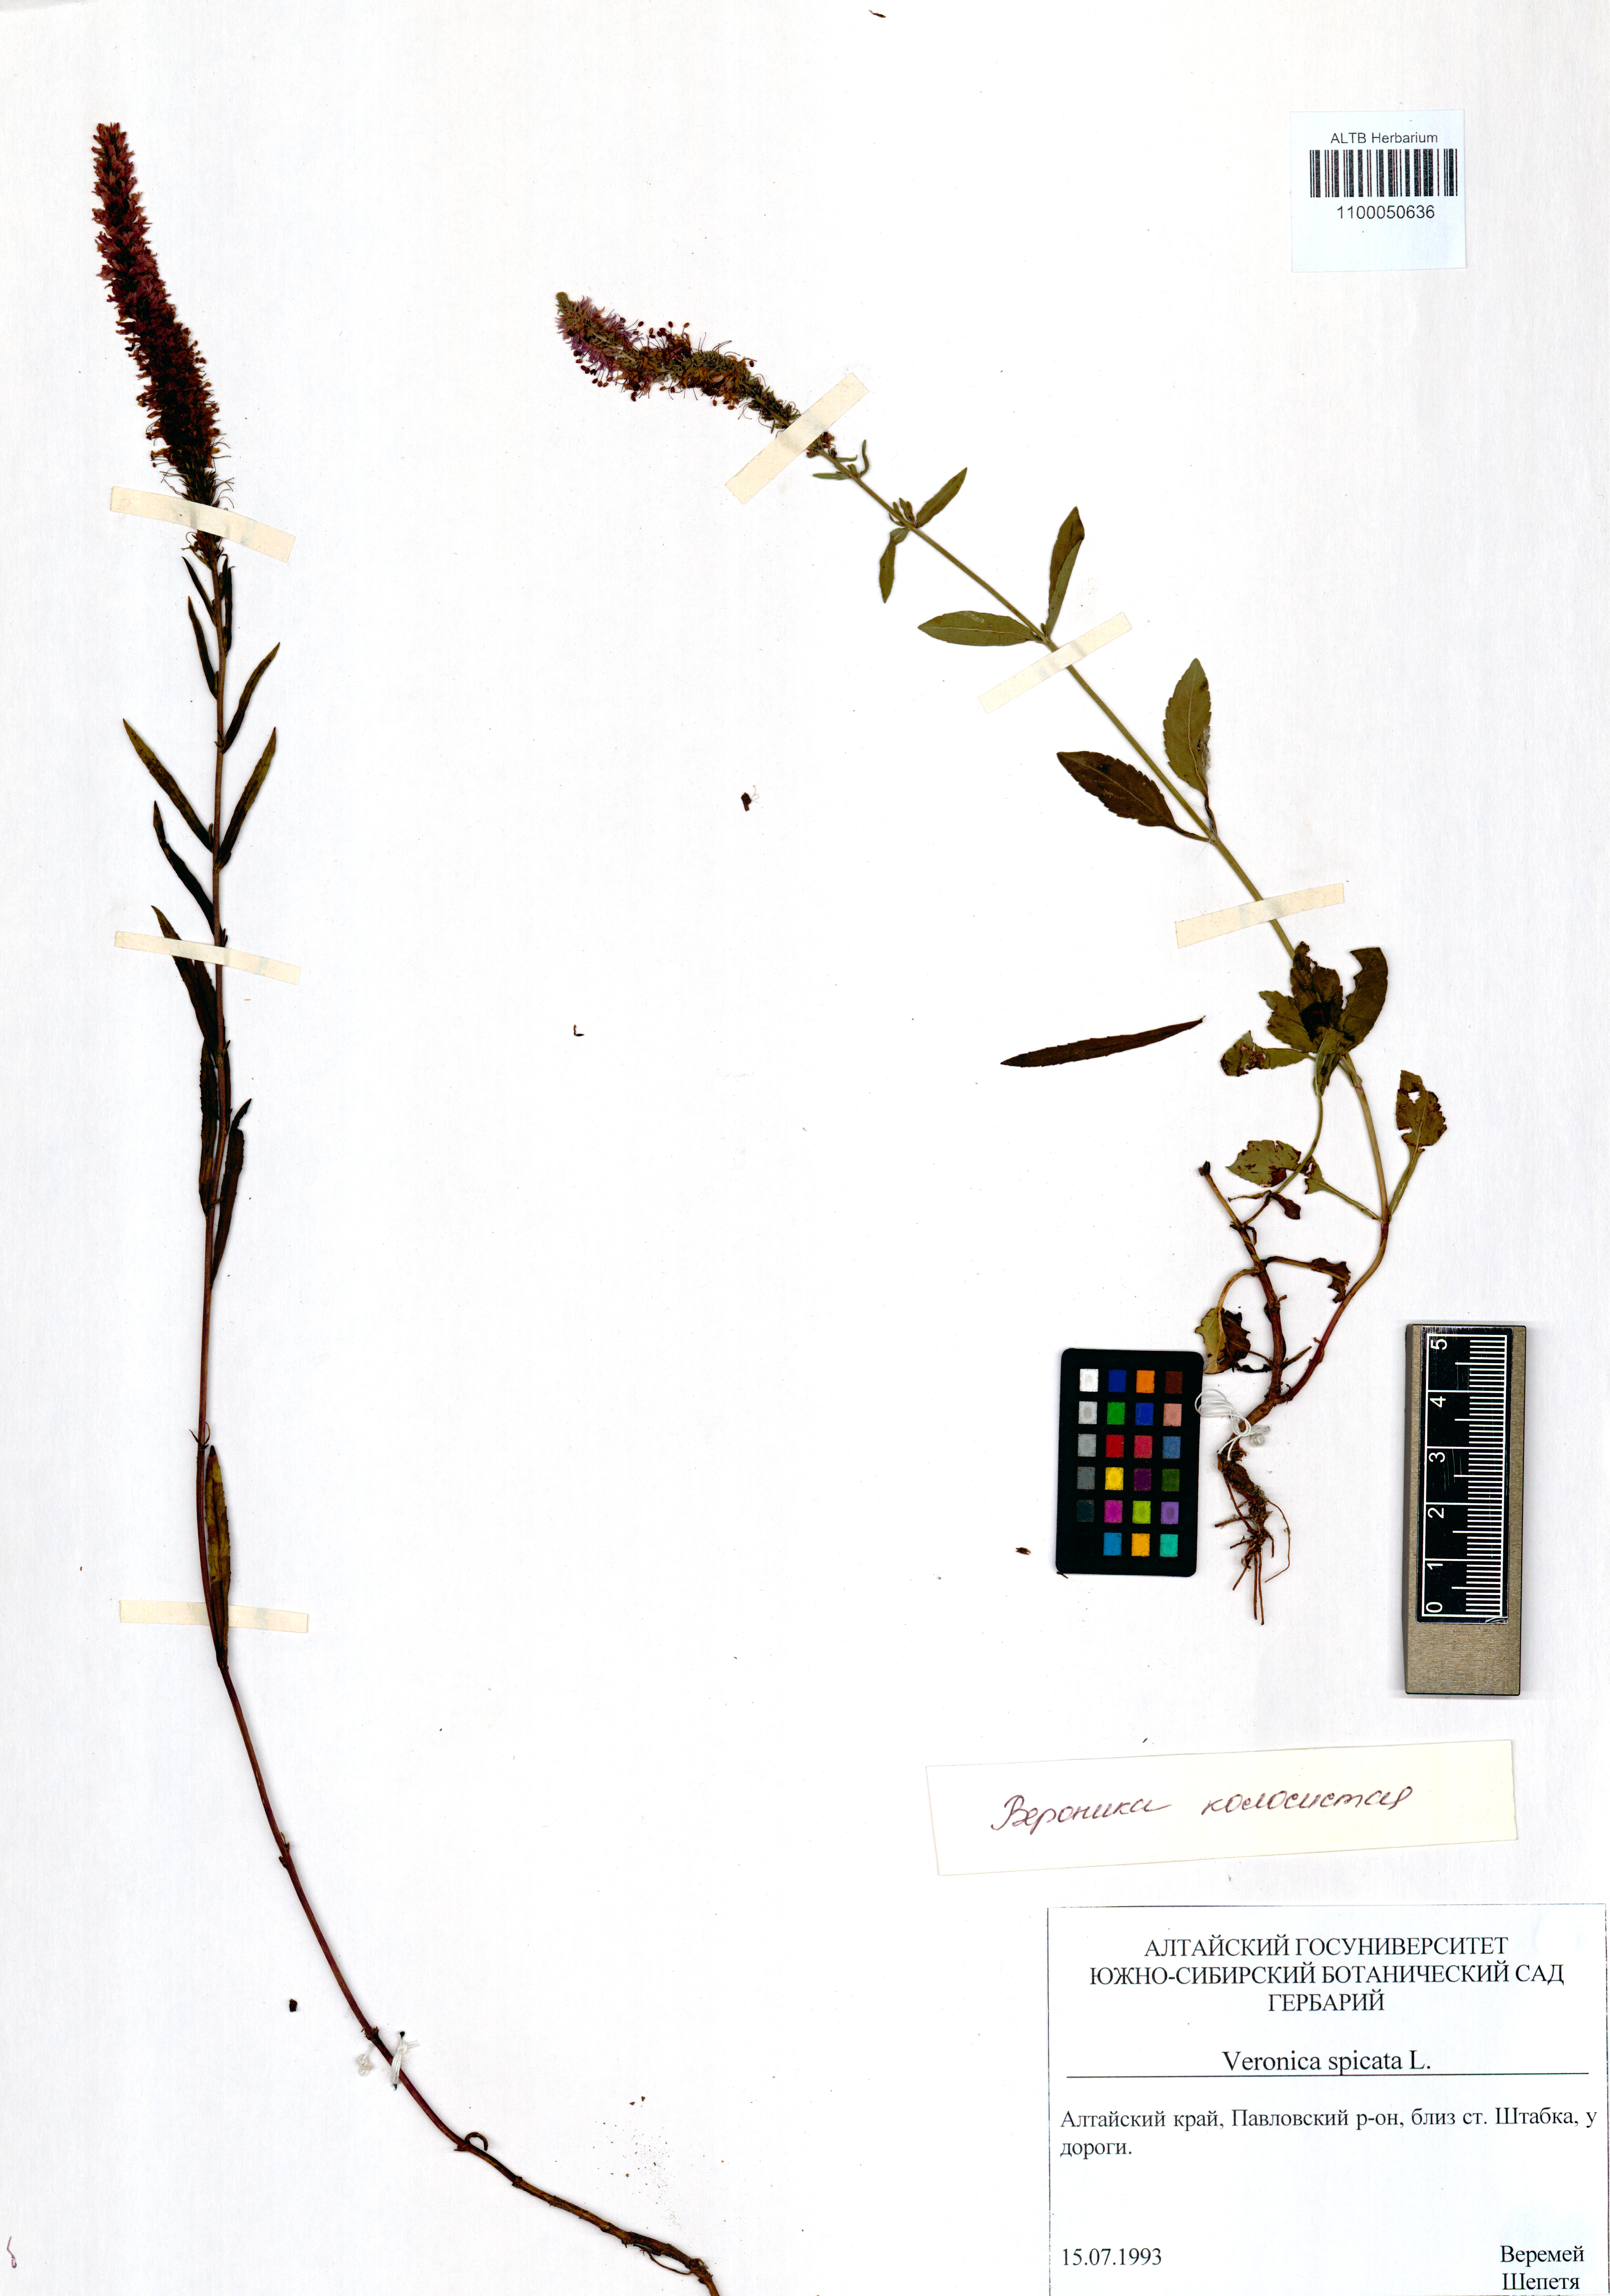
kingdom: Plantae
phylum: Tracheophyta
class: Magnoliopsida
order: Lamiales
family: Plantaginaceae
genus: Veronica
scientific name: Veronica spicata
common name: Spiked speedwell
